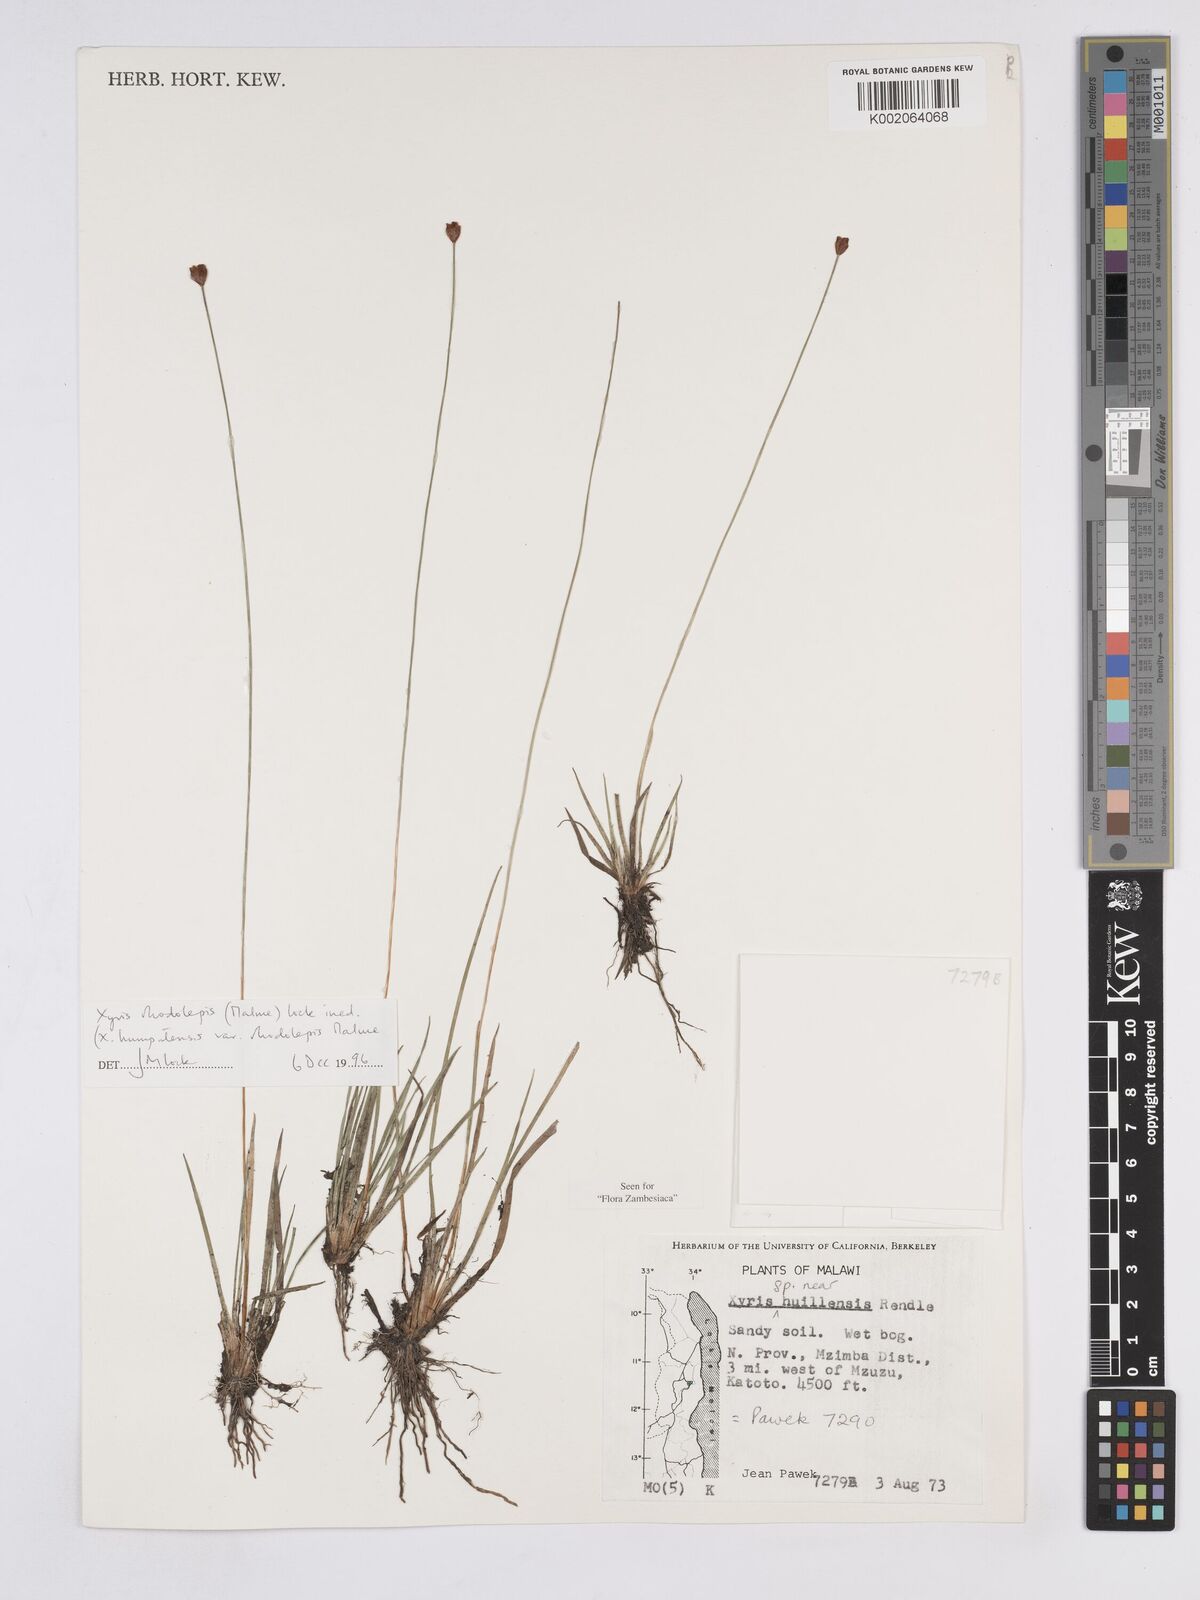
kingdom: Plantae
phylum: Tracheophyta
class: Liliopsida
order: Poales
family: Xyridaceae
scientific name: Xyridaceae
